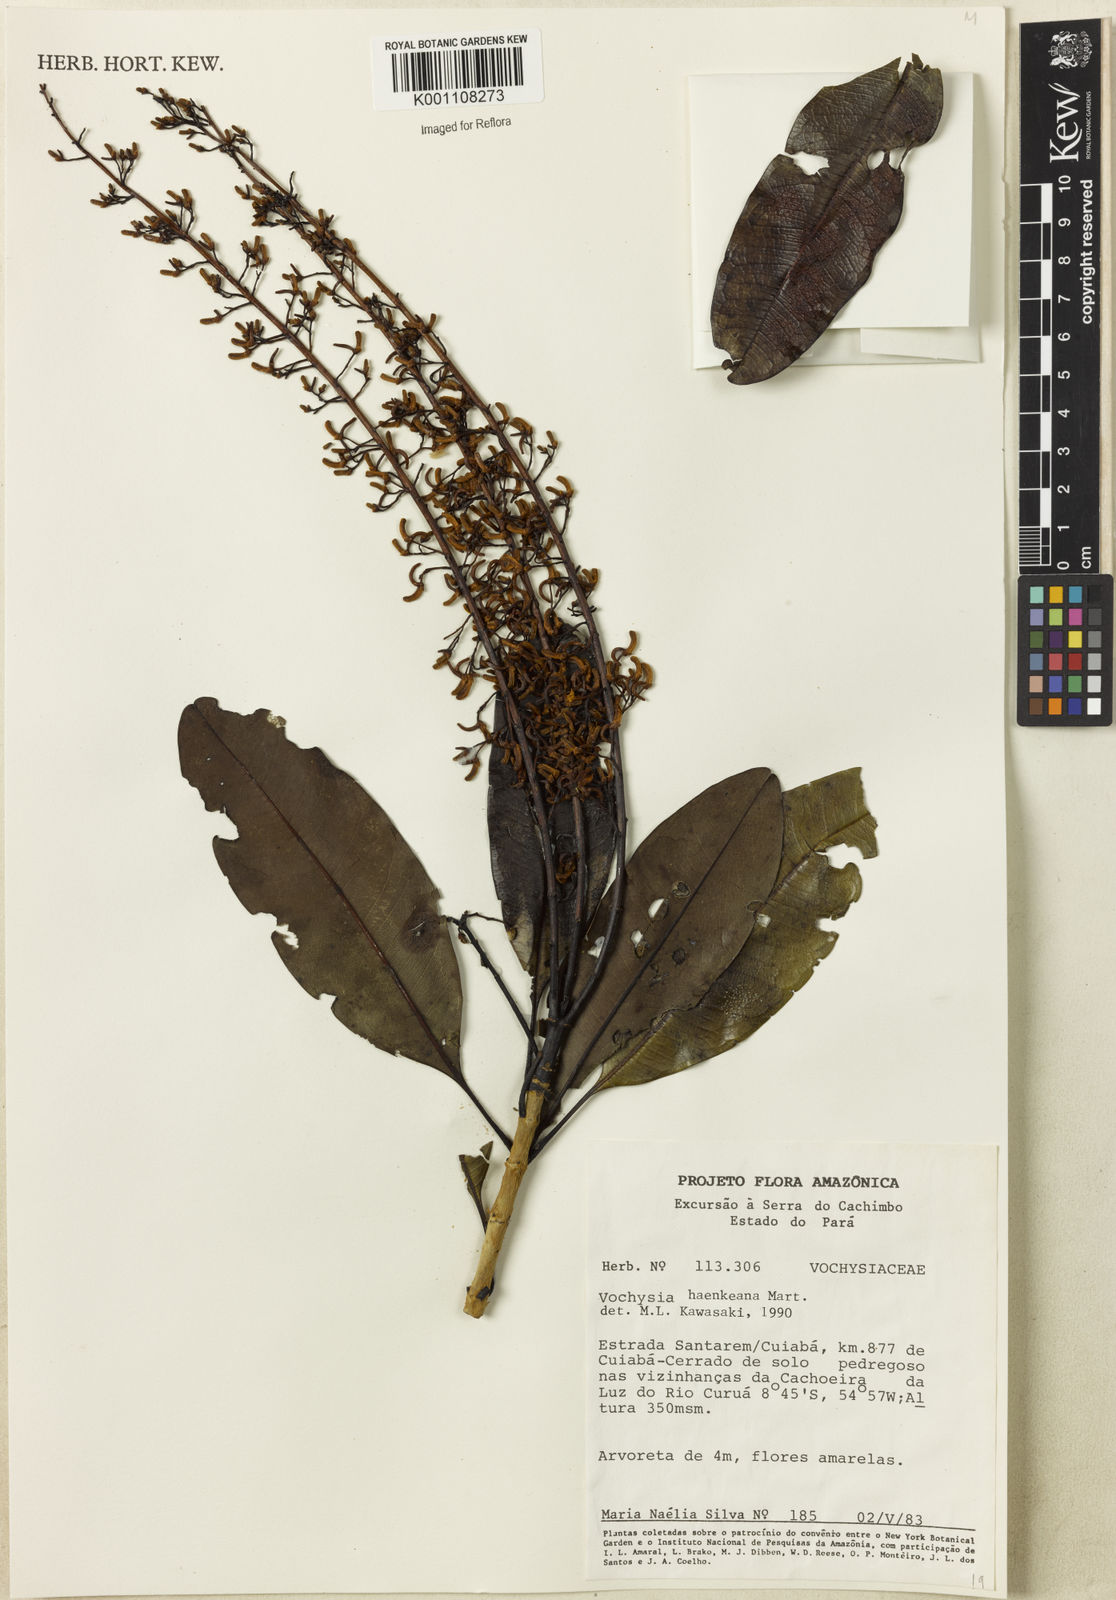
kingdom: Plantae
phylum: Tracheophyta
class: Magnoliopsida
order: Myrtales
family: Vochysiaceae
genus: Vochysia
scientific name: Vochysia haenkeana
